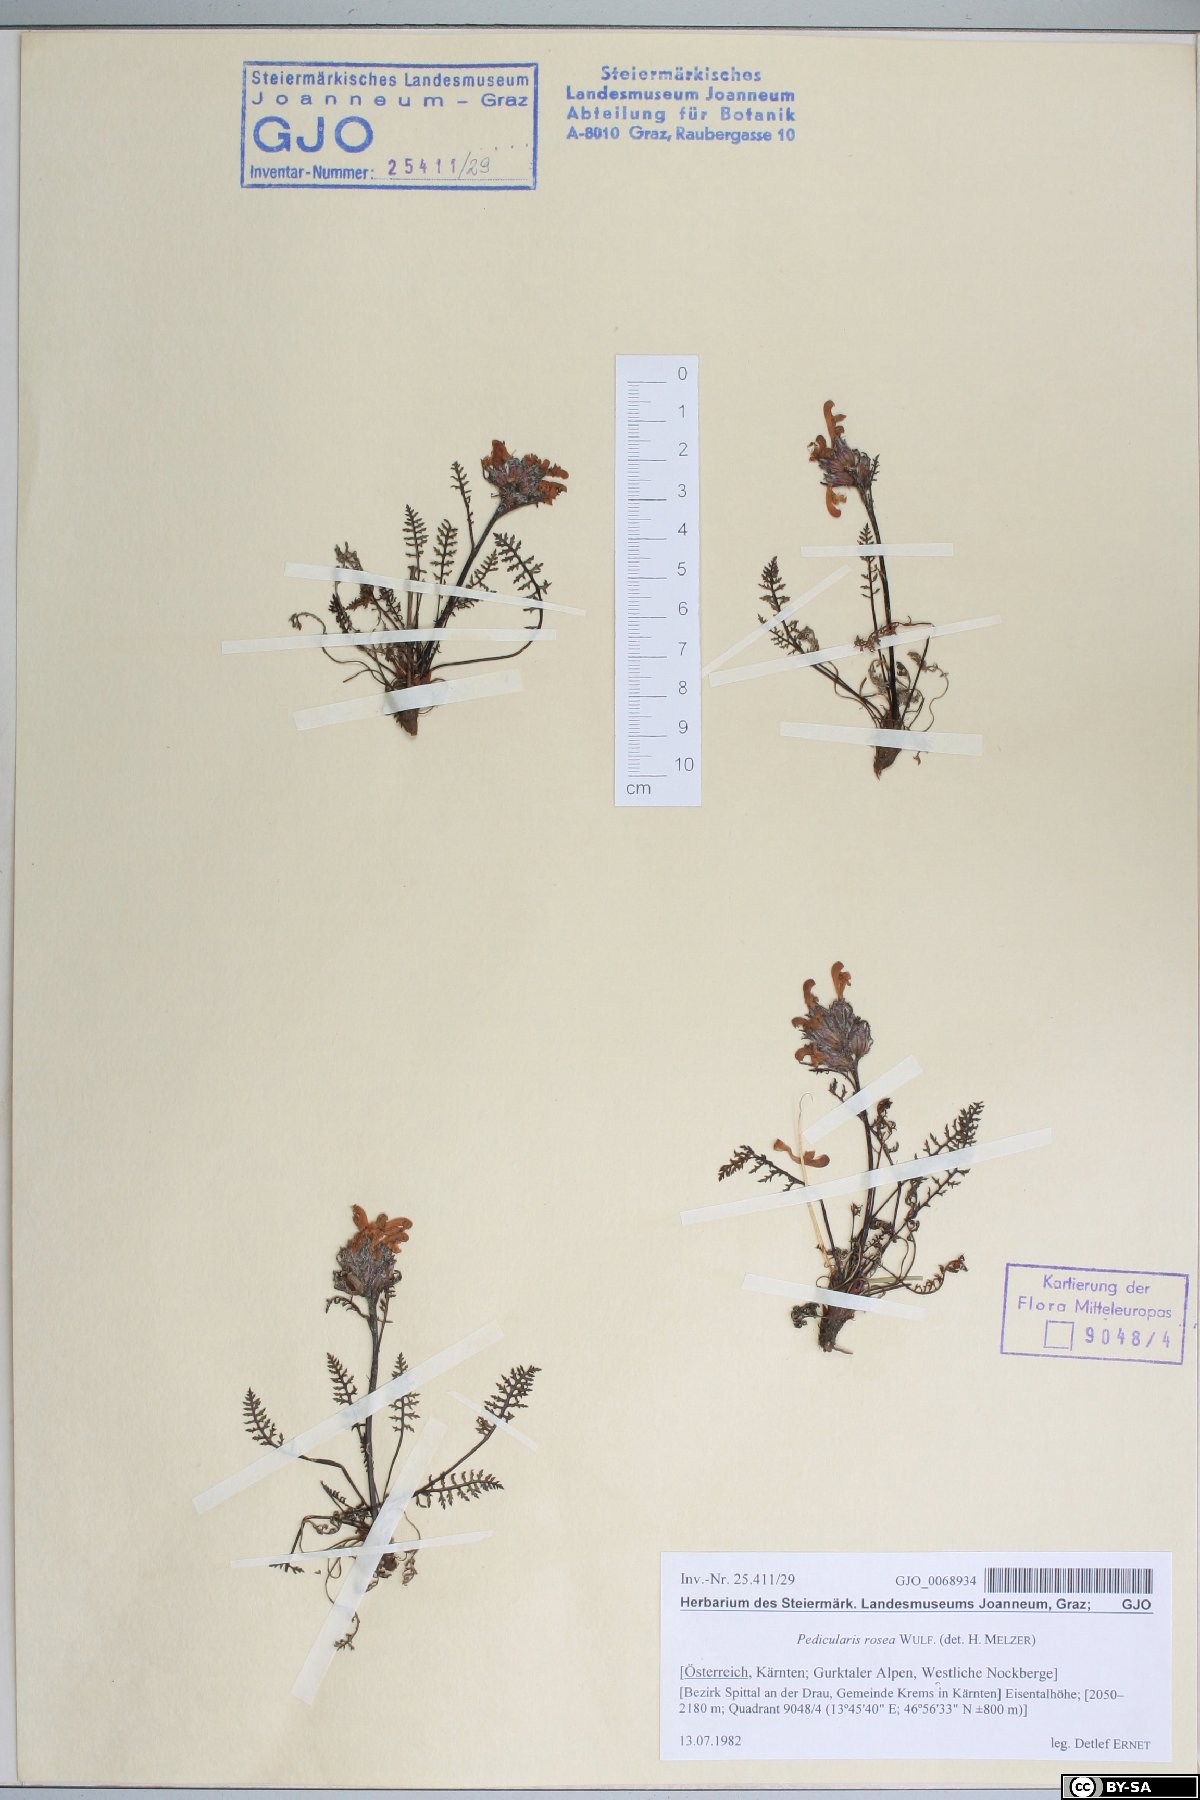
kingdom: Plantae
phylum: Tracheophyta
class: Magnoliopsida
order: Lamiales
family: Orobanchaceae
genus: Pedicularis
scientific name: Pedicularis rosea
